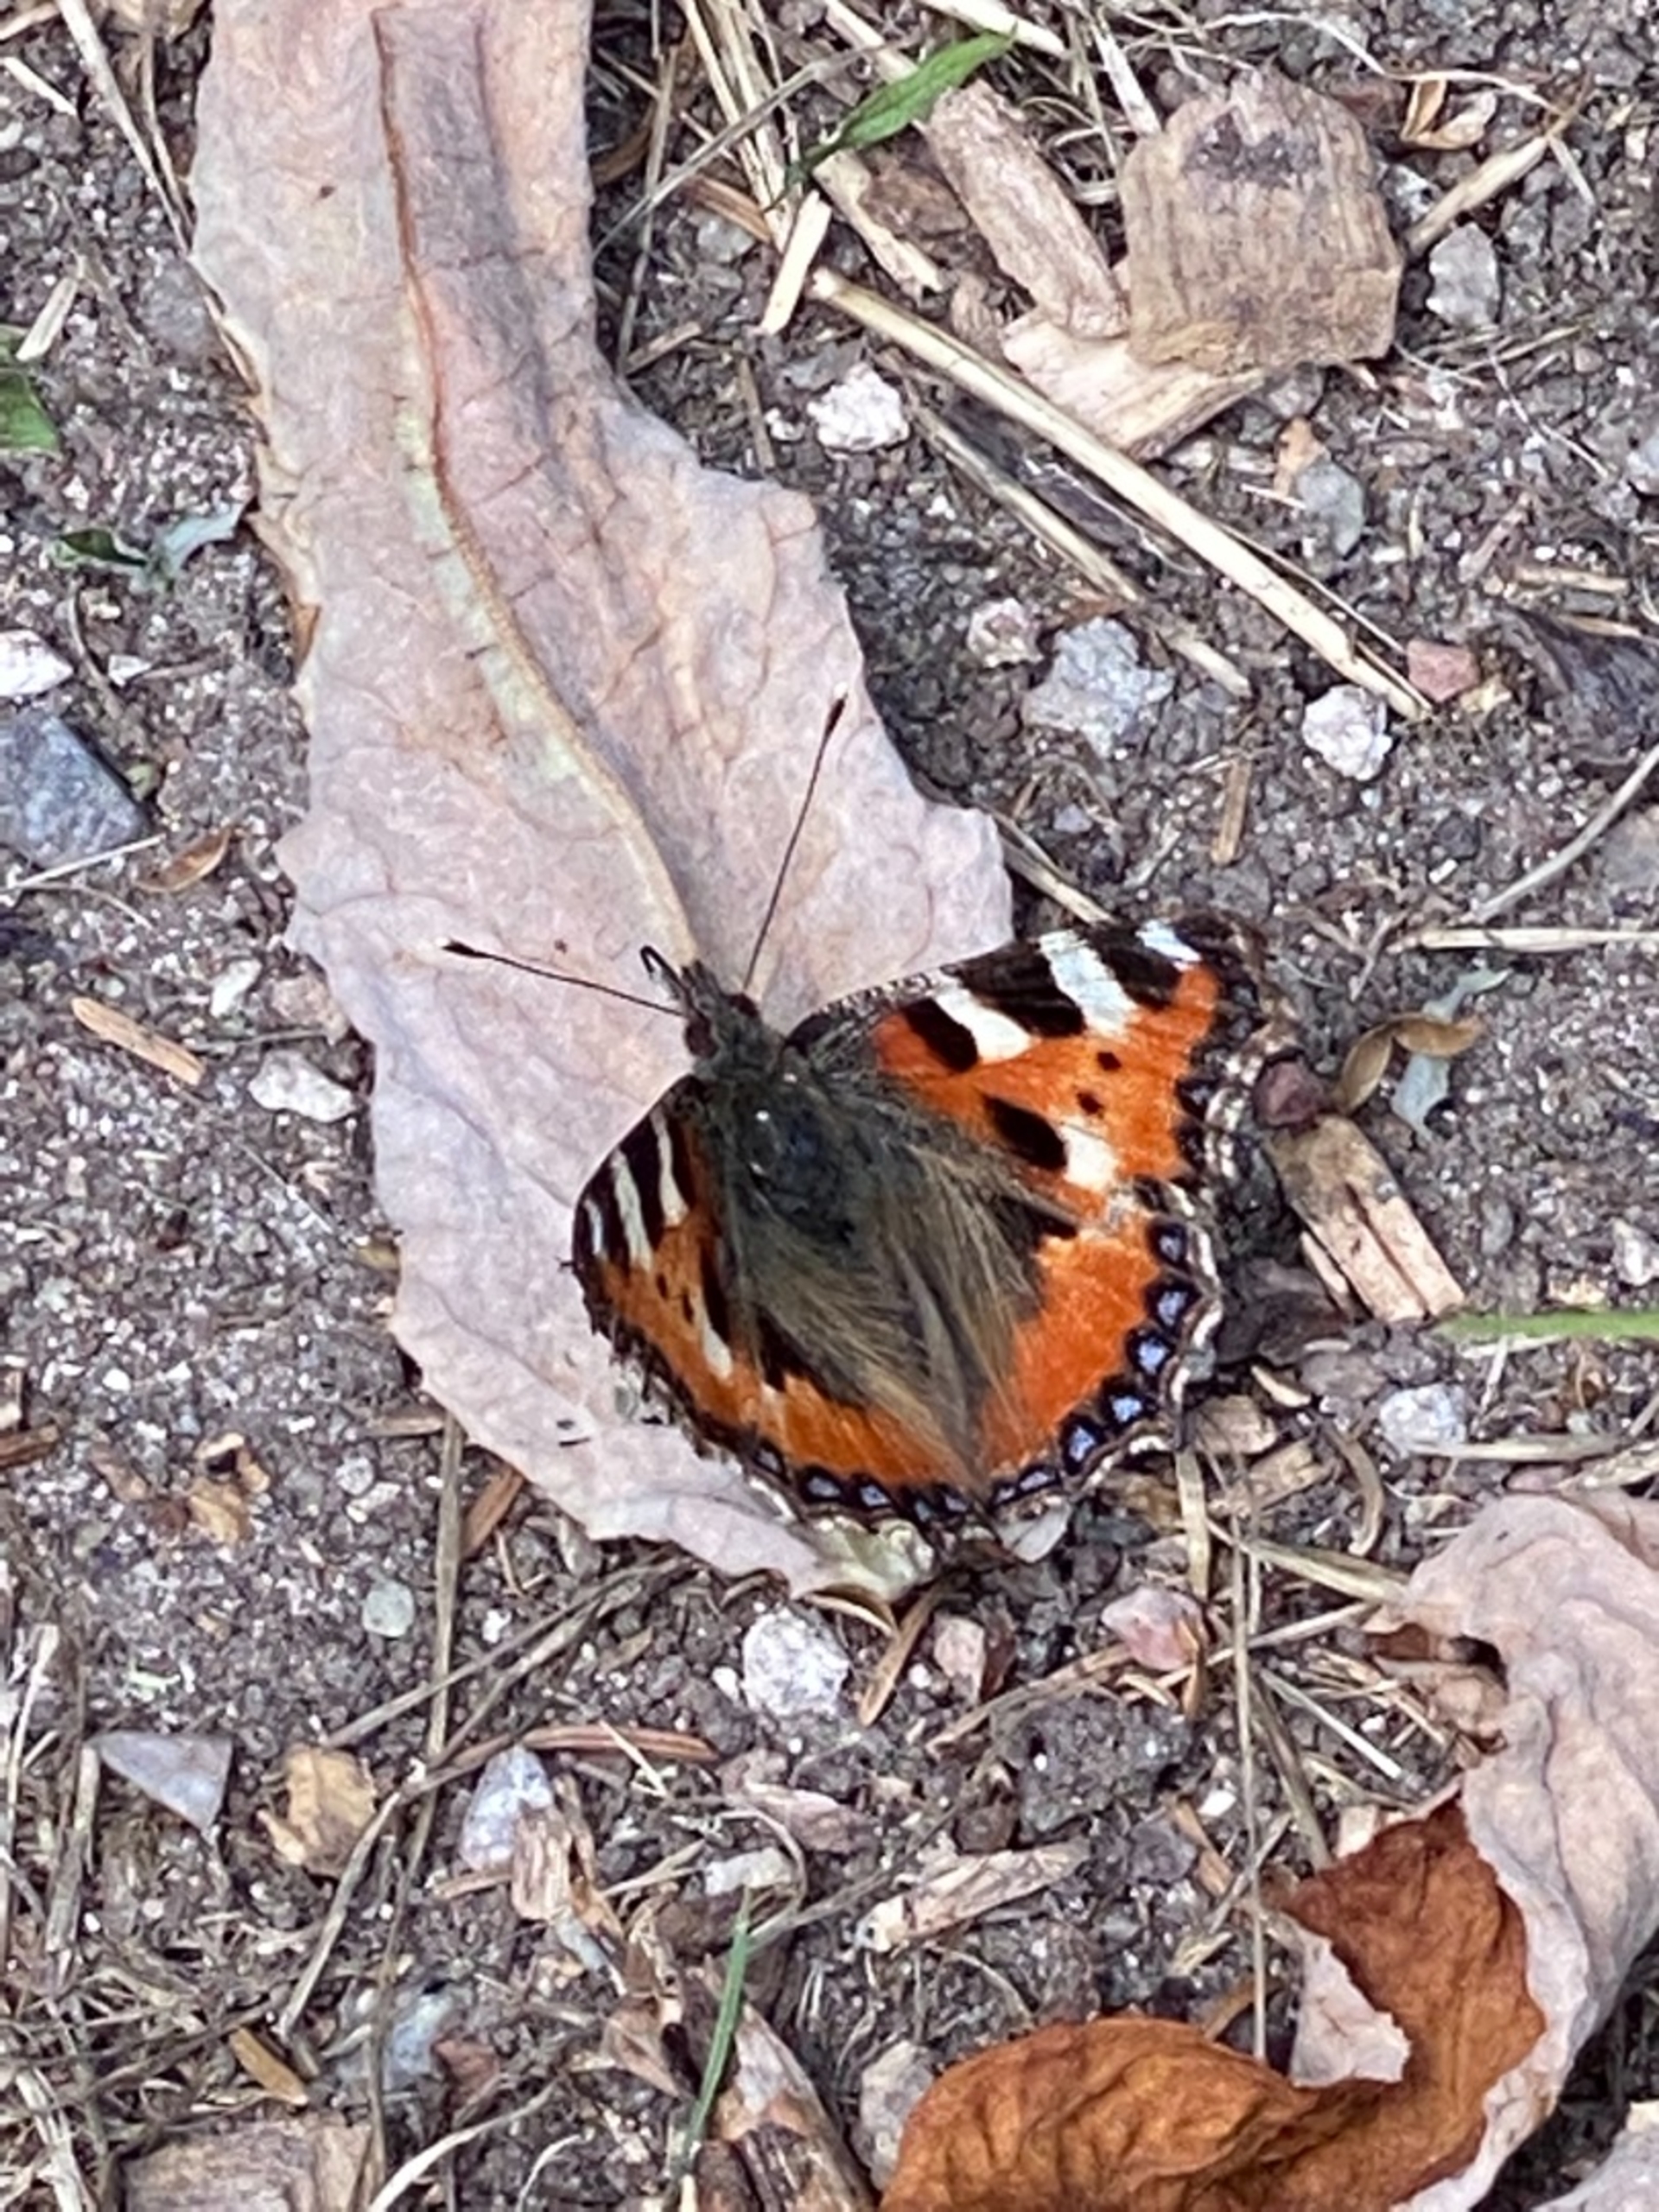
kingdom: Animalia
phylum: Arthropoda
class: Insecta
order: Lepidoptera
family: Nymphalidae
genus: Aglais
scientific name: Aglais urticae
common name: Nældens takvinge
